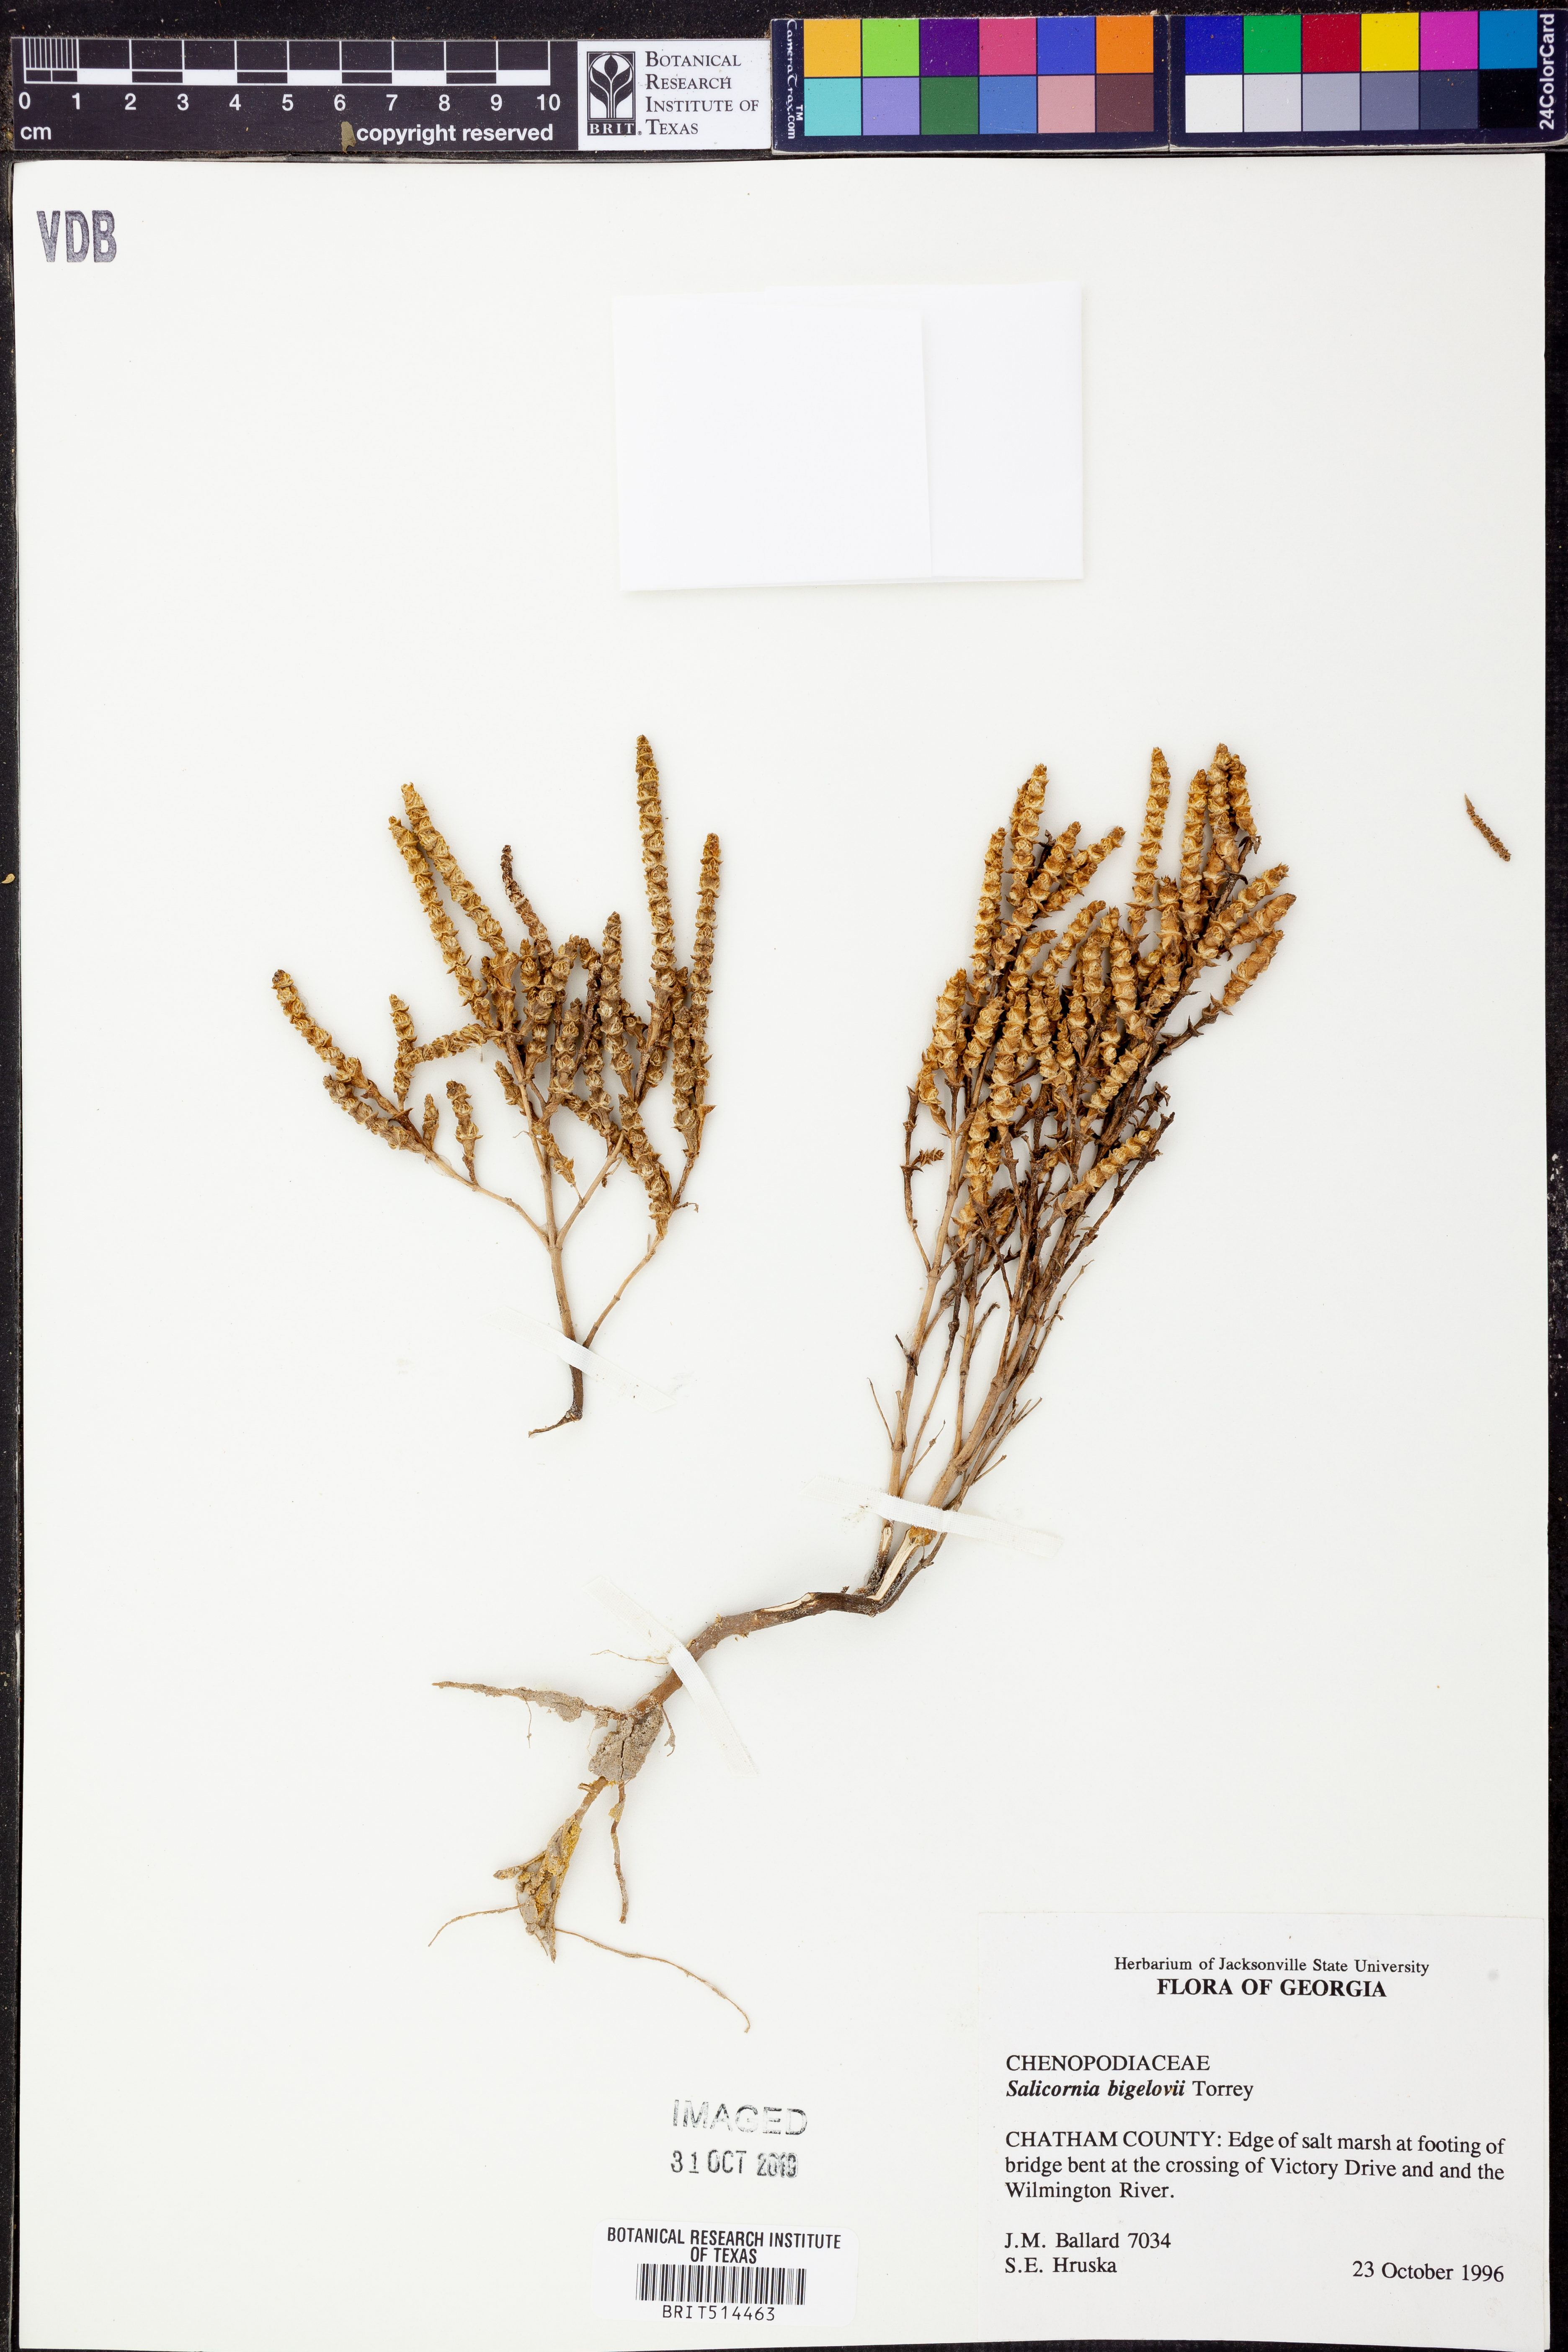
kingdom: Plantae
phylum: Tracheophyta
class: Magnoliopsida
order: Caryophyllales
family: Amaranthaceae
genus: Salicornia
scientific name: Salicornia bigelovii
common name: Dwarf glasswort
